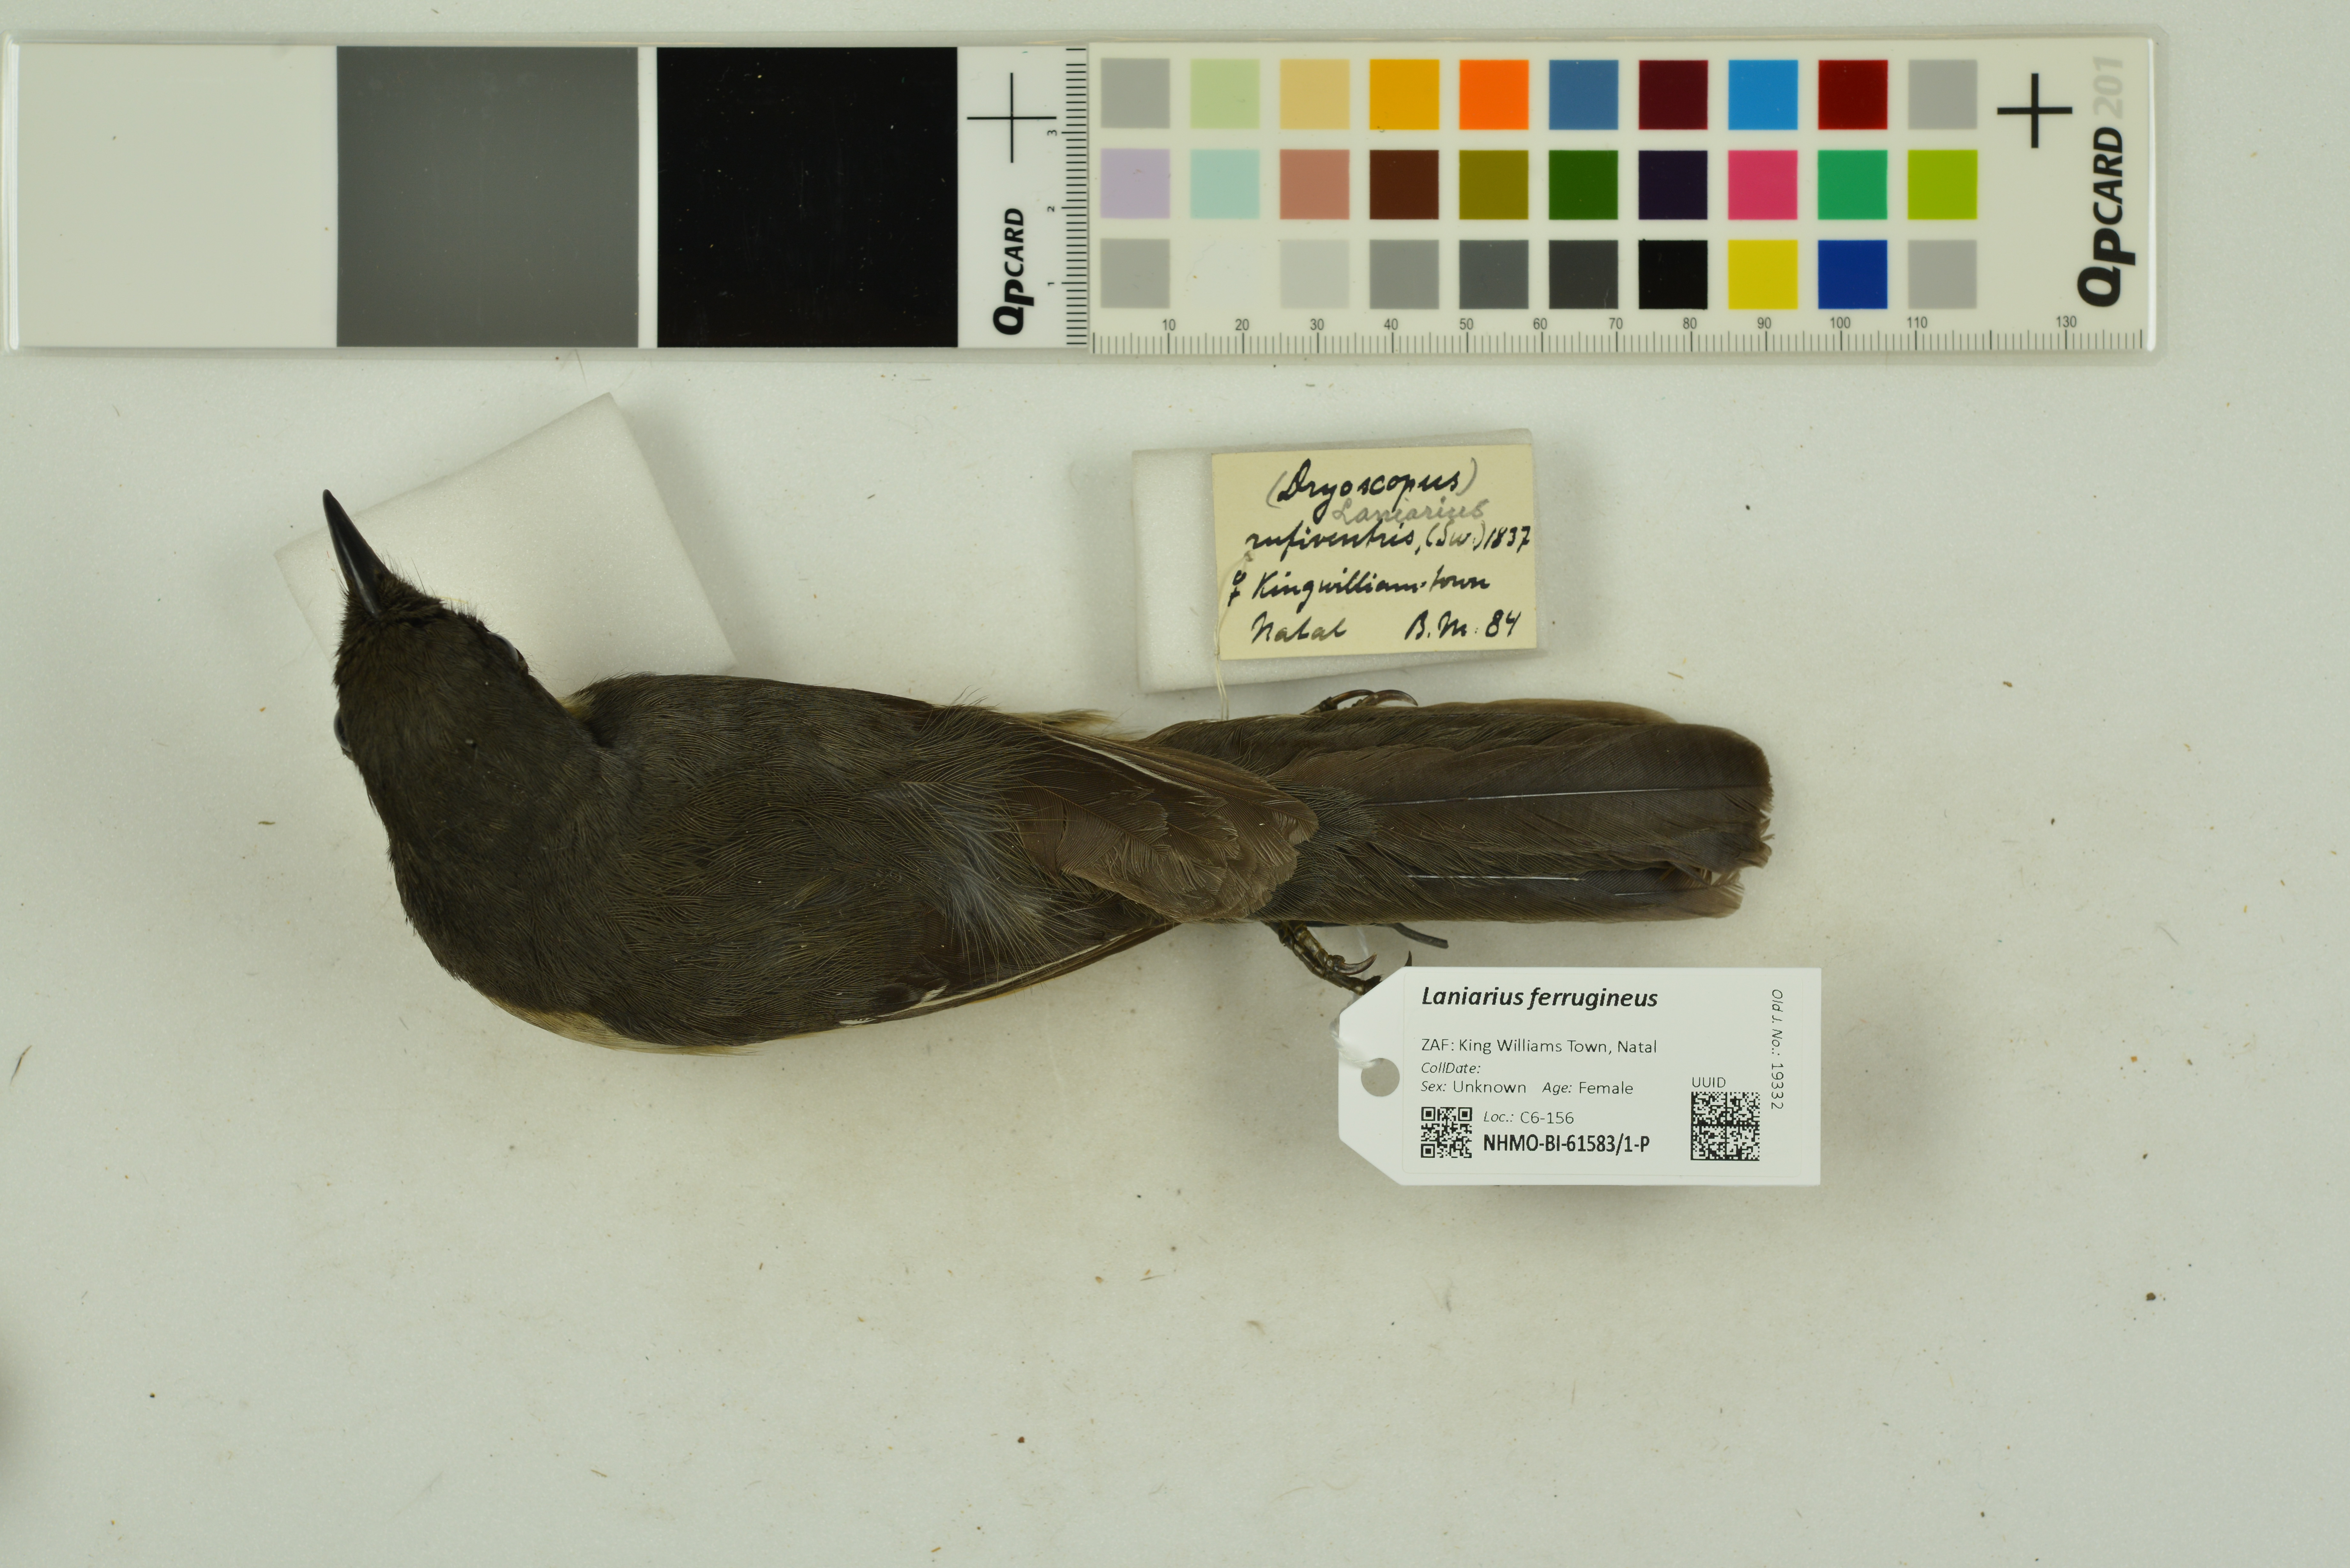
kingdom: Animalia
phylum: Chordata
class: Aves
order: Passeriformes
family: Malaconotidae
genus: Laniarius
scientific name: Laniarius ferrugineus
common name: Southern boubou
